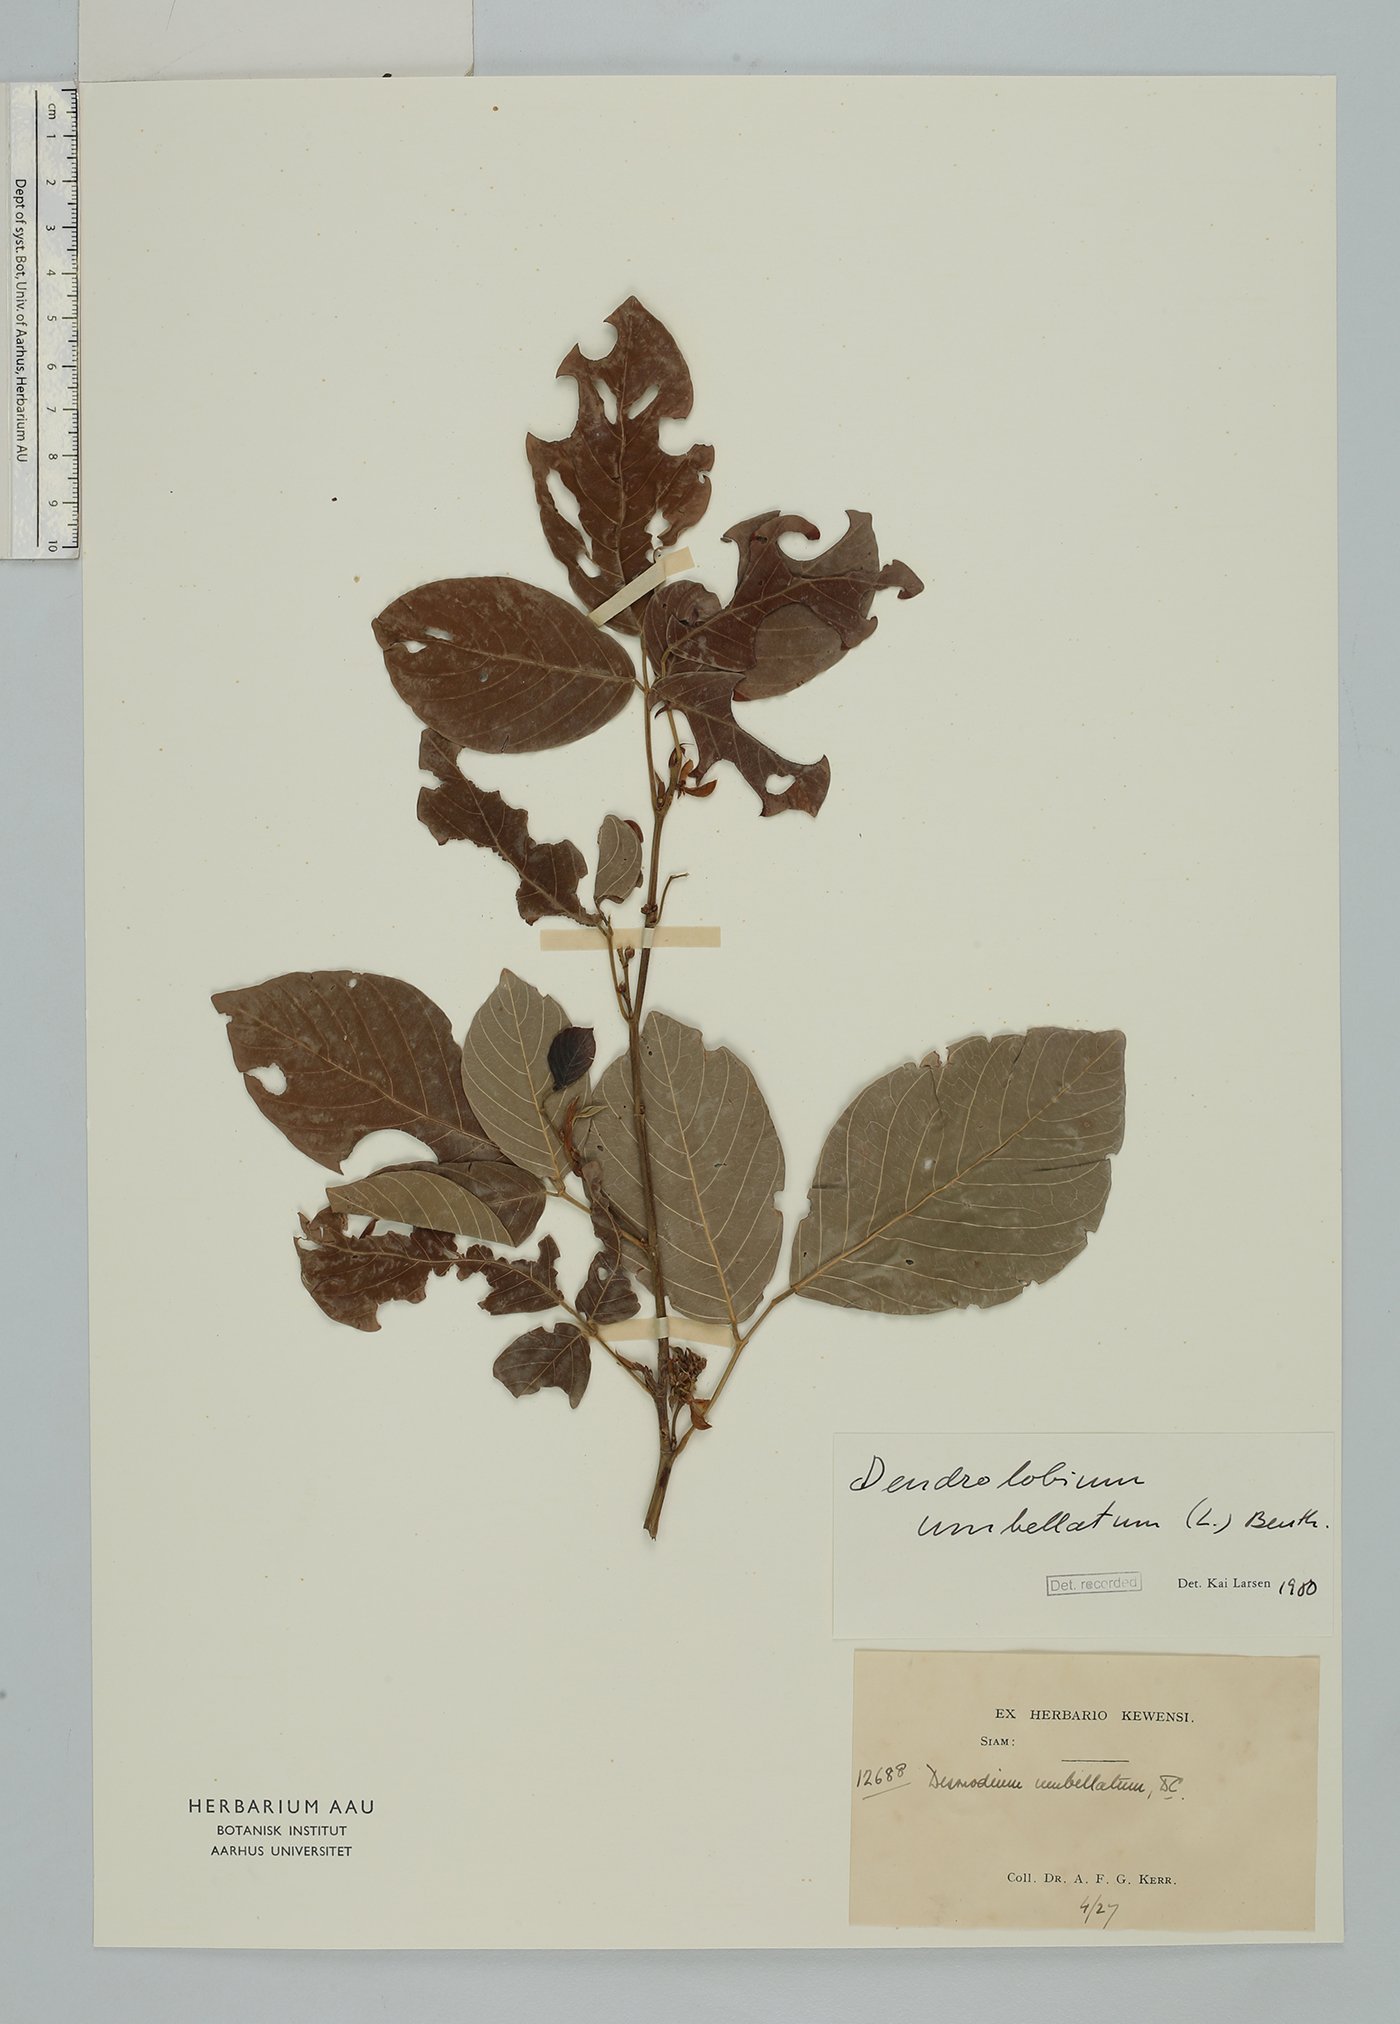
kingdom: Plantae
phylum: Tracheophyta
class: Magnoliopsida
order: Fabales
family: Fabaceae
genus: Dendrolobium
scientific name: Dendrolobium umbellatum
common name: Horsebush
